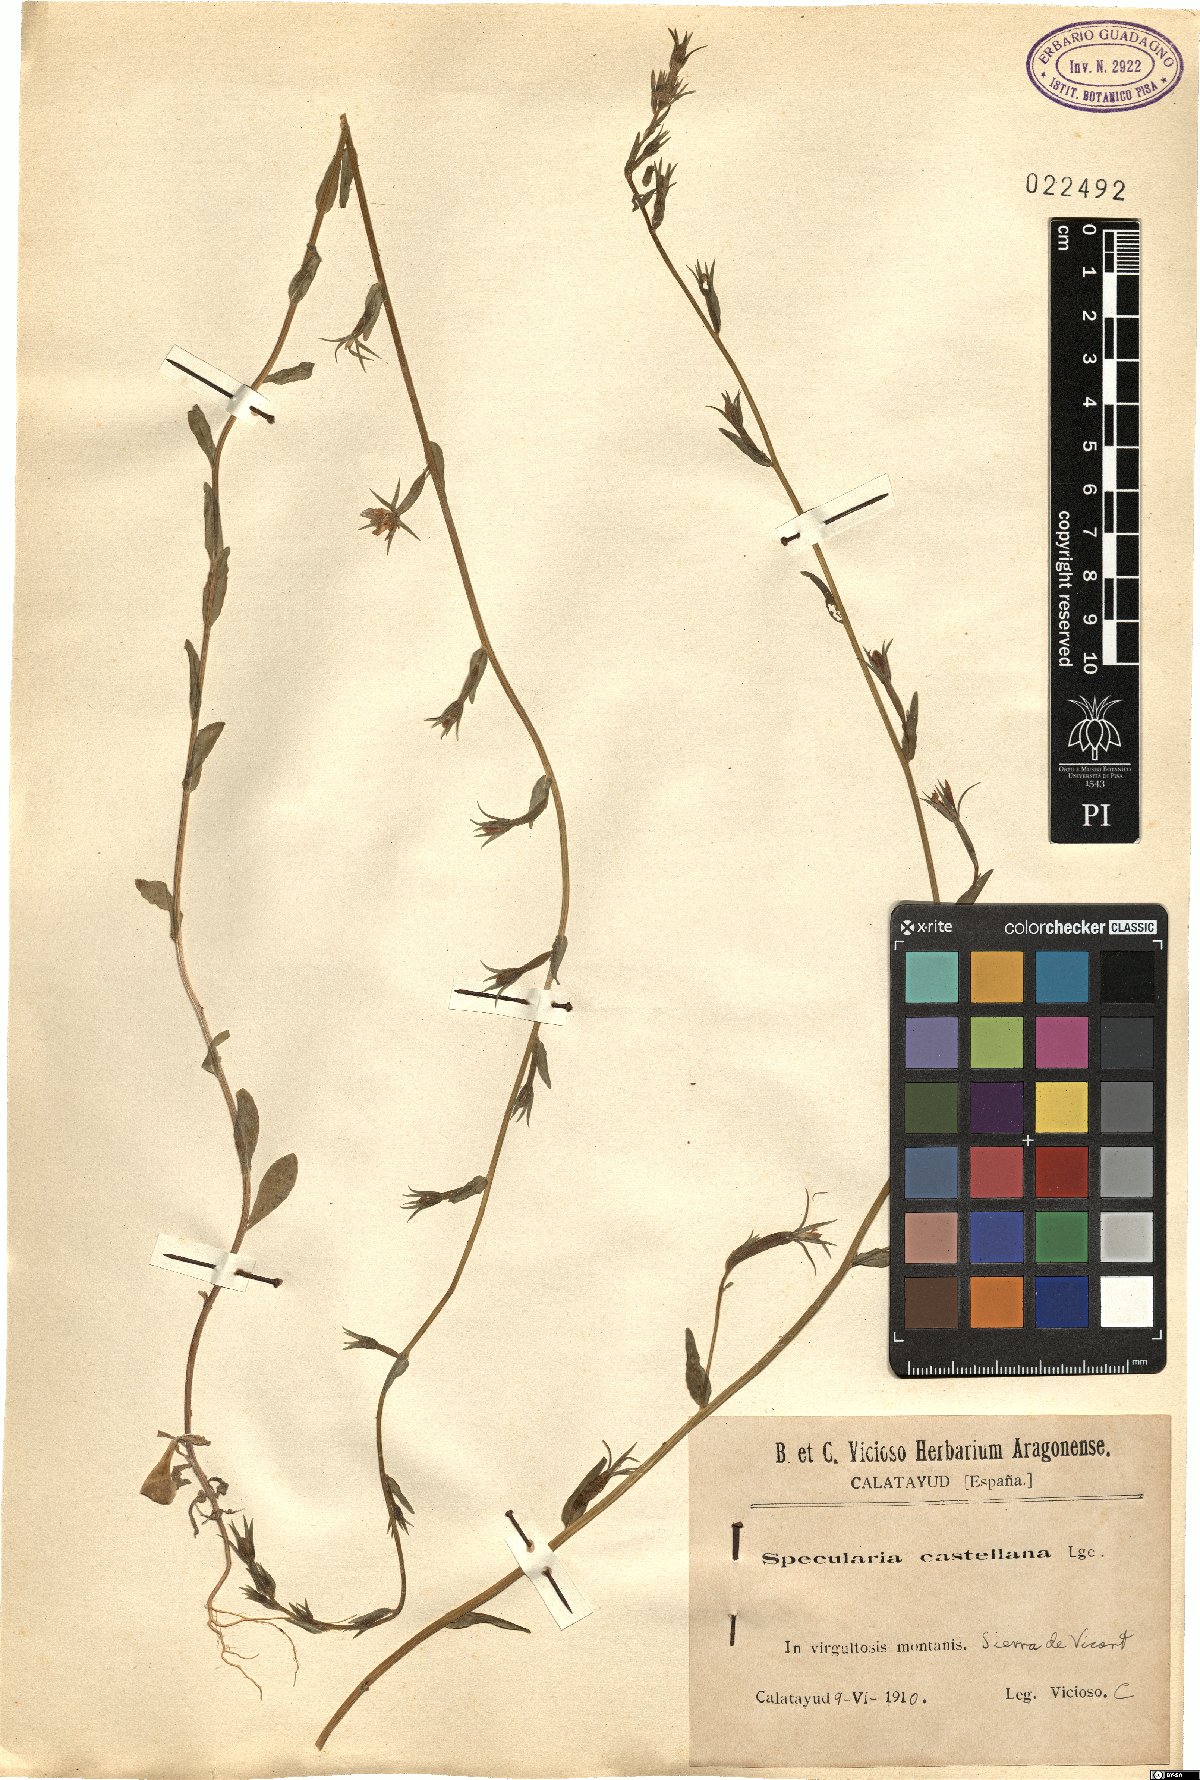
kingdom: Plantae
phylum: Tracheophyta
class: Magnoliopsida
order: Asterales
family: Campanulaceae
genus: Legousia
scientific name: Legousia falcata
